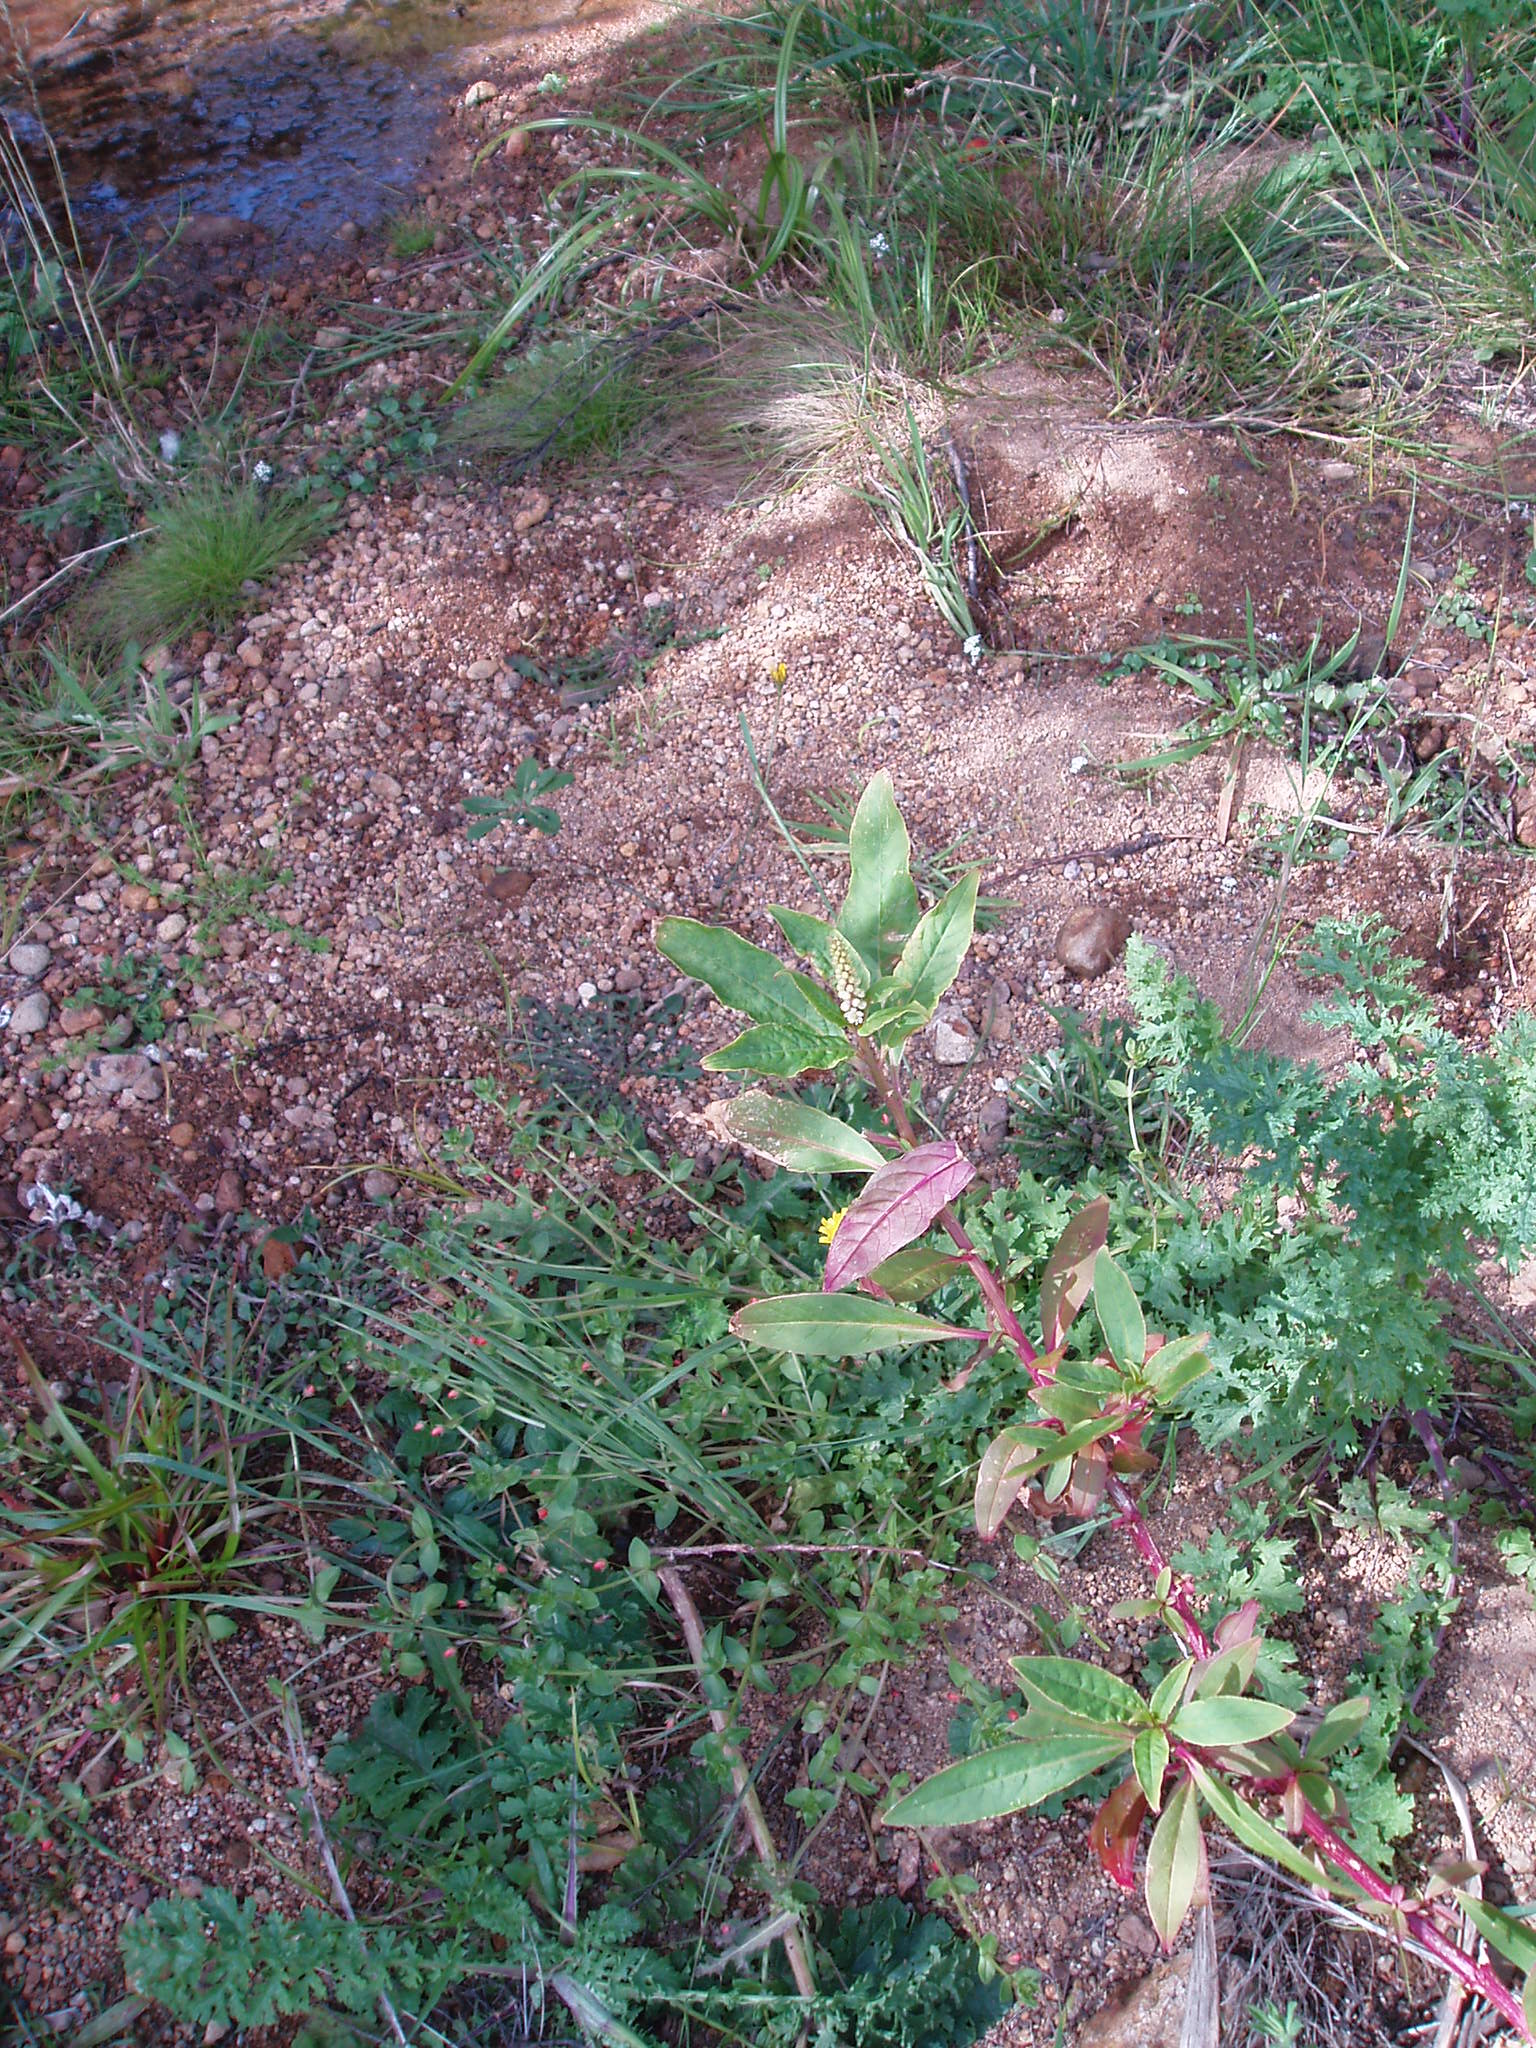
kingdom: Plantae
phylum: Tracheophyta
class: Magnoliopsida
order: Caryophyllales
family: Phytolaccaceae
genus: Phytolacca
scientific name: Phytolacca icosandra
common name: Button pokeweed
